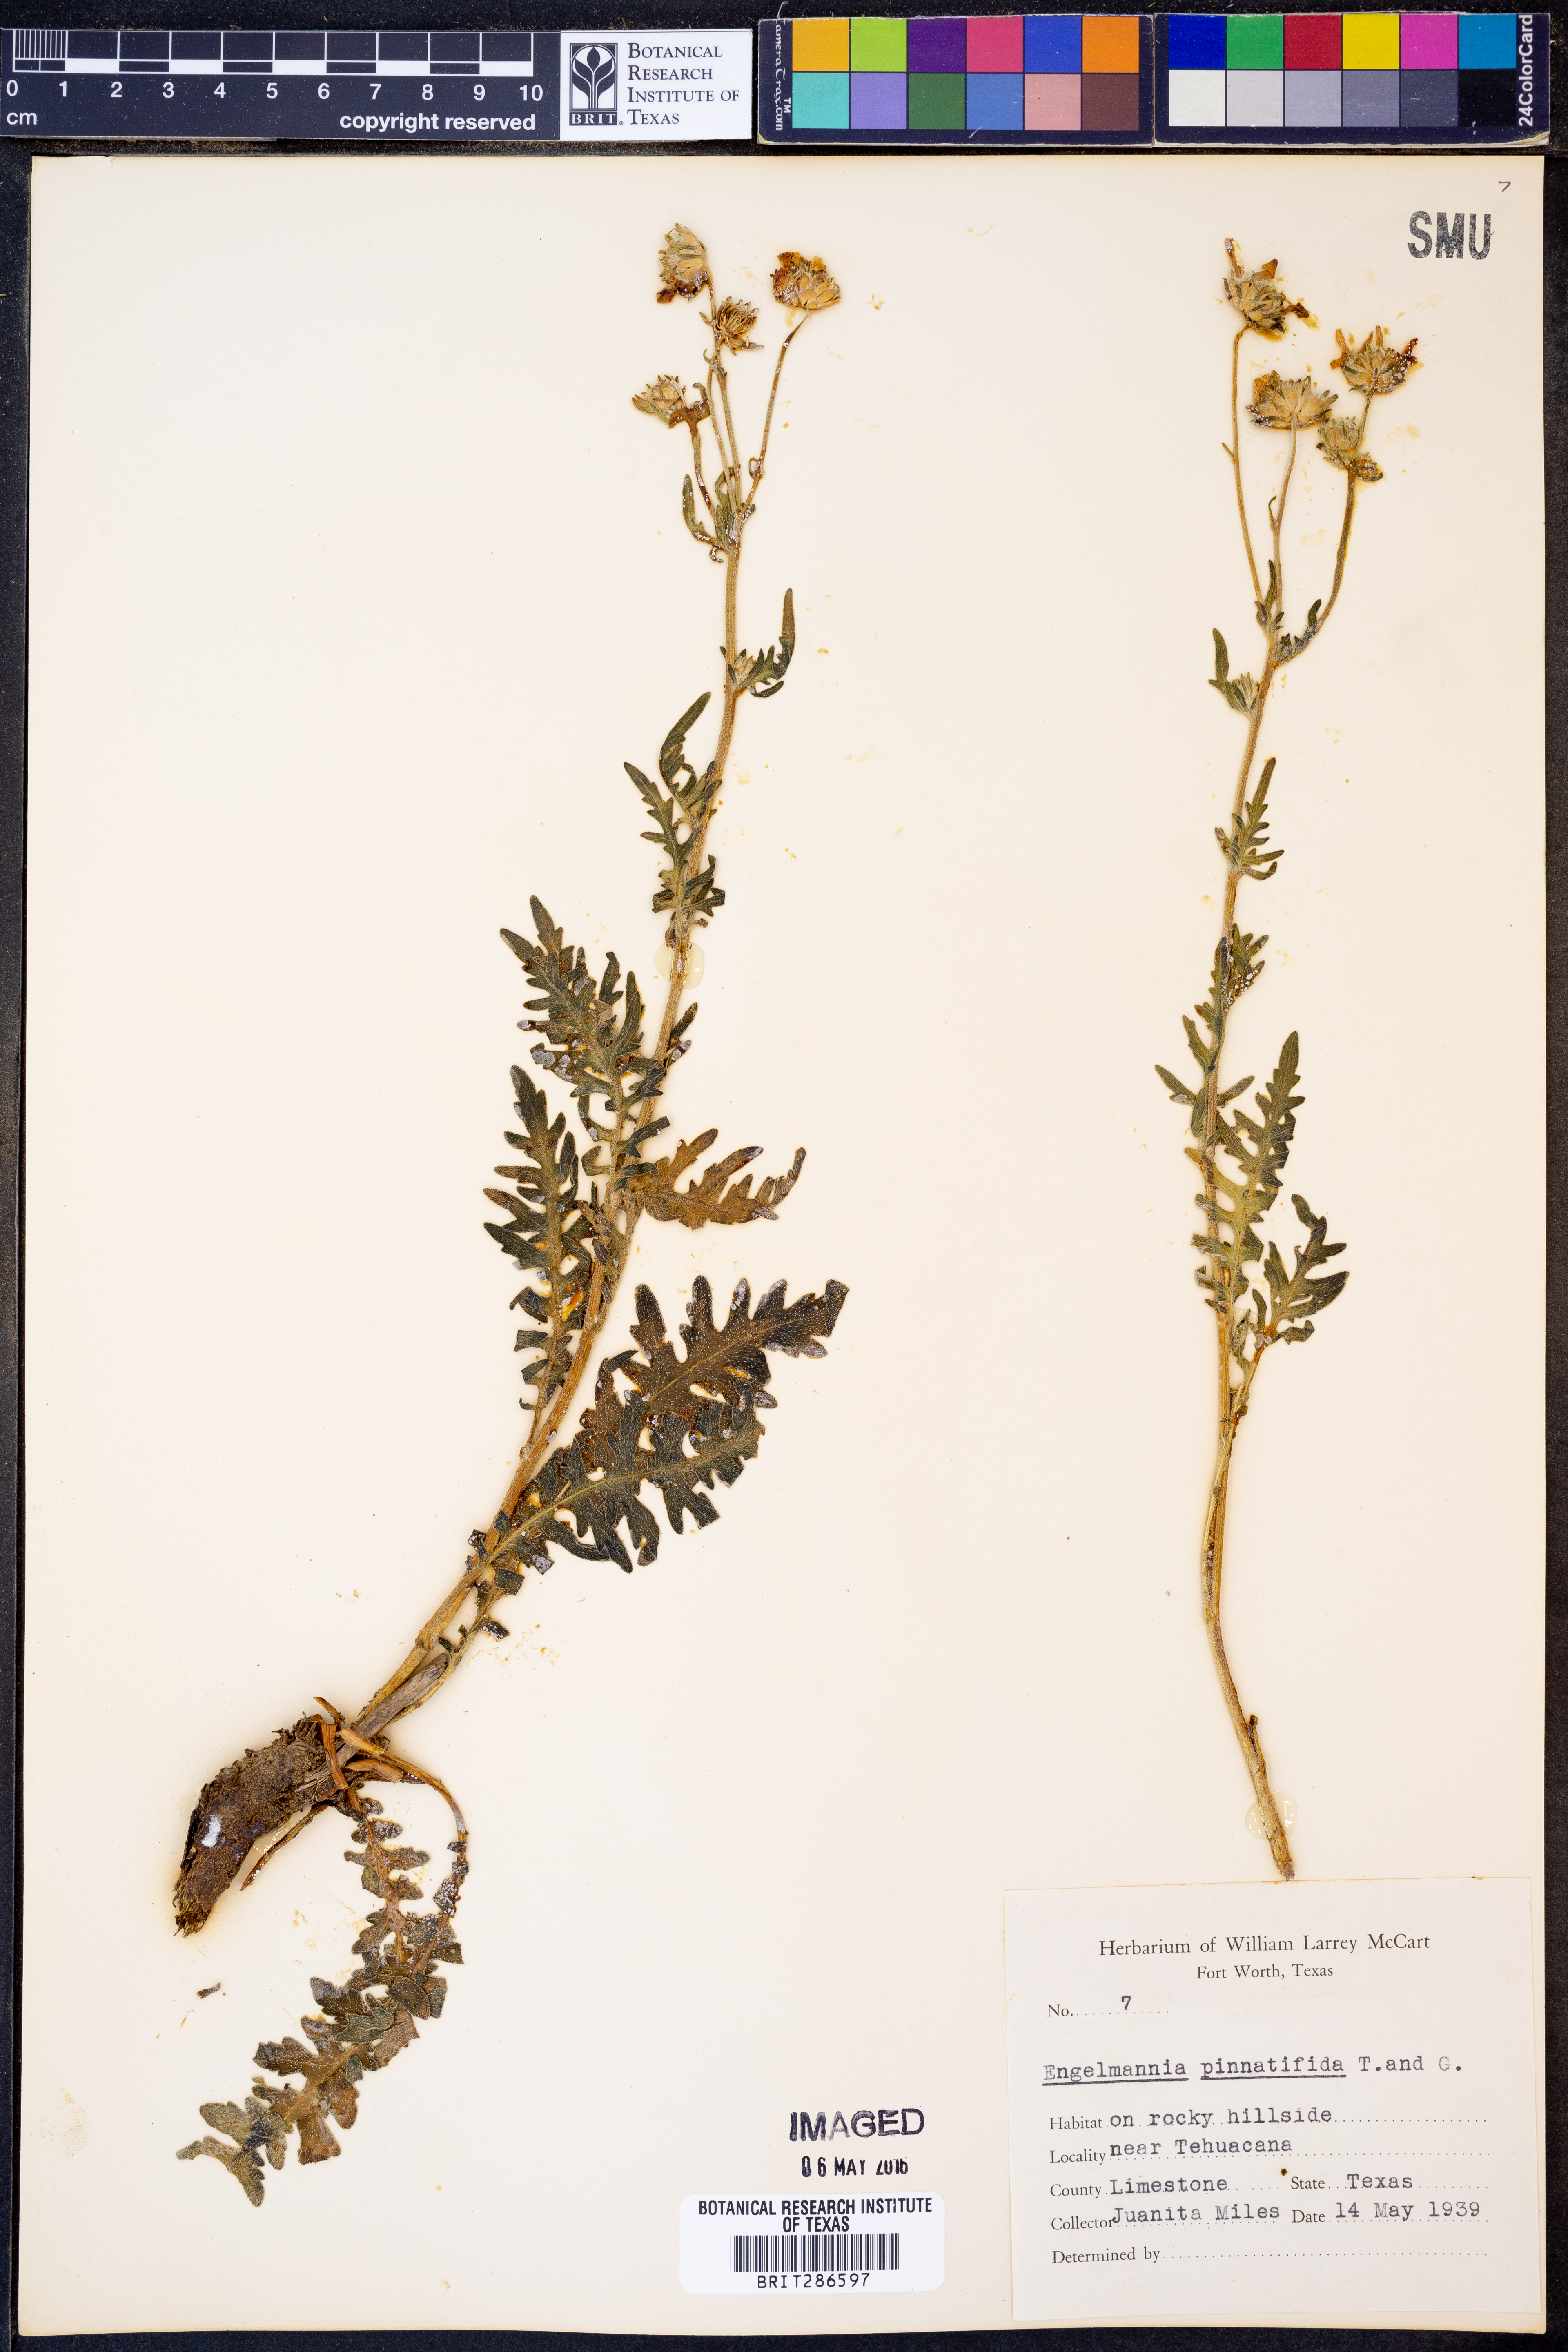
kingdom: Plantae
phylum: Tracheophyta
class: Magnoliopsida
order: Asterales
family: Asteraceae
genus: Engelmannia
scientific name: Engelmannia peristenia
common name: Engelmann's daisy
